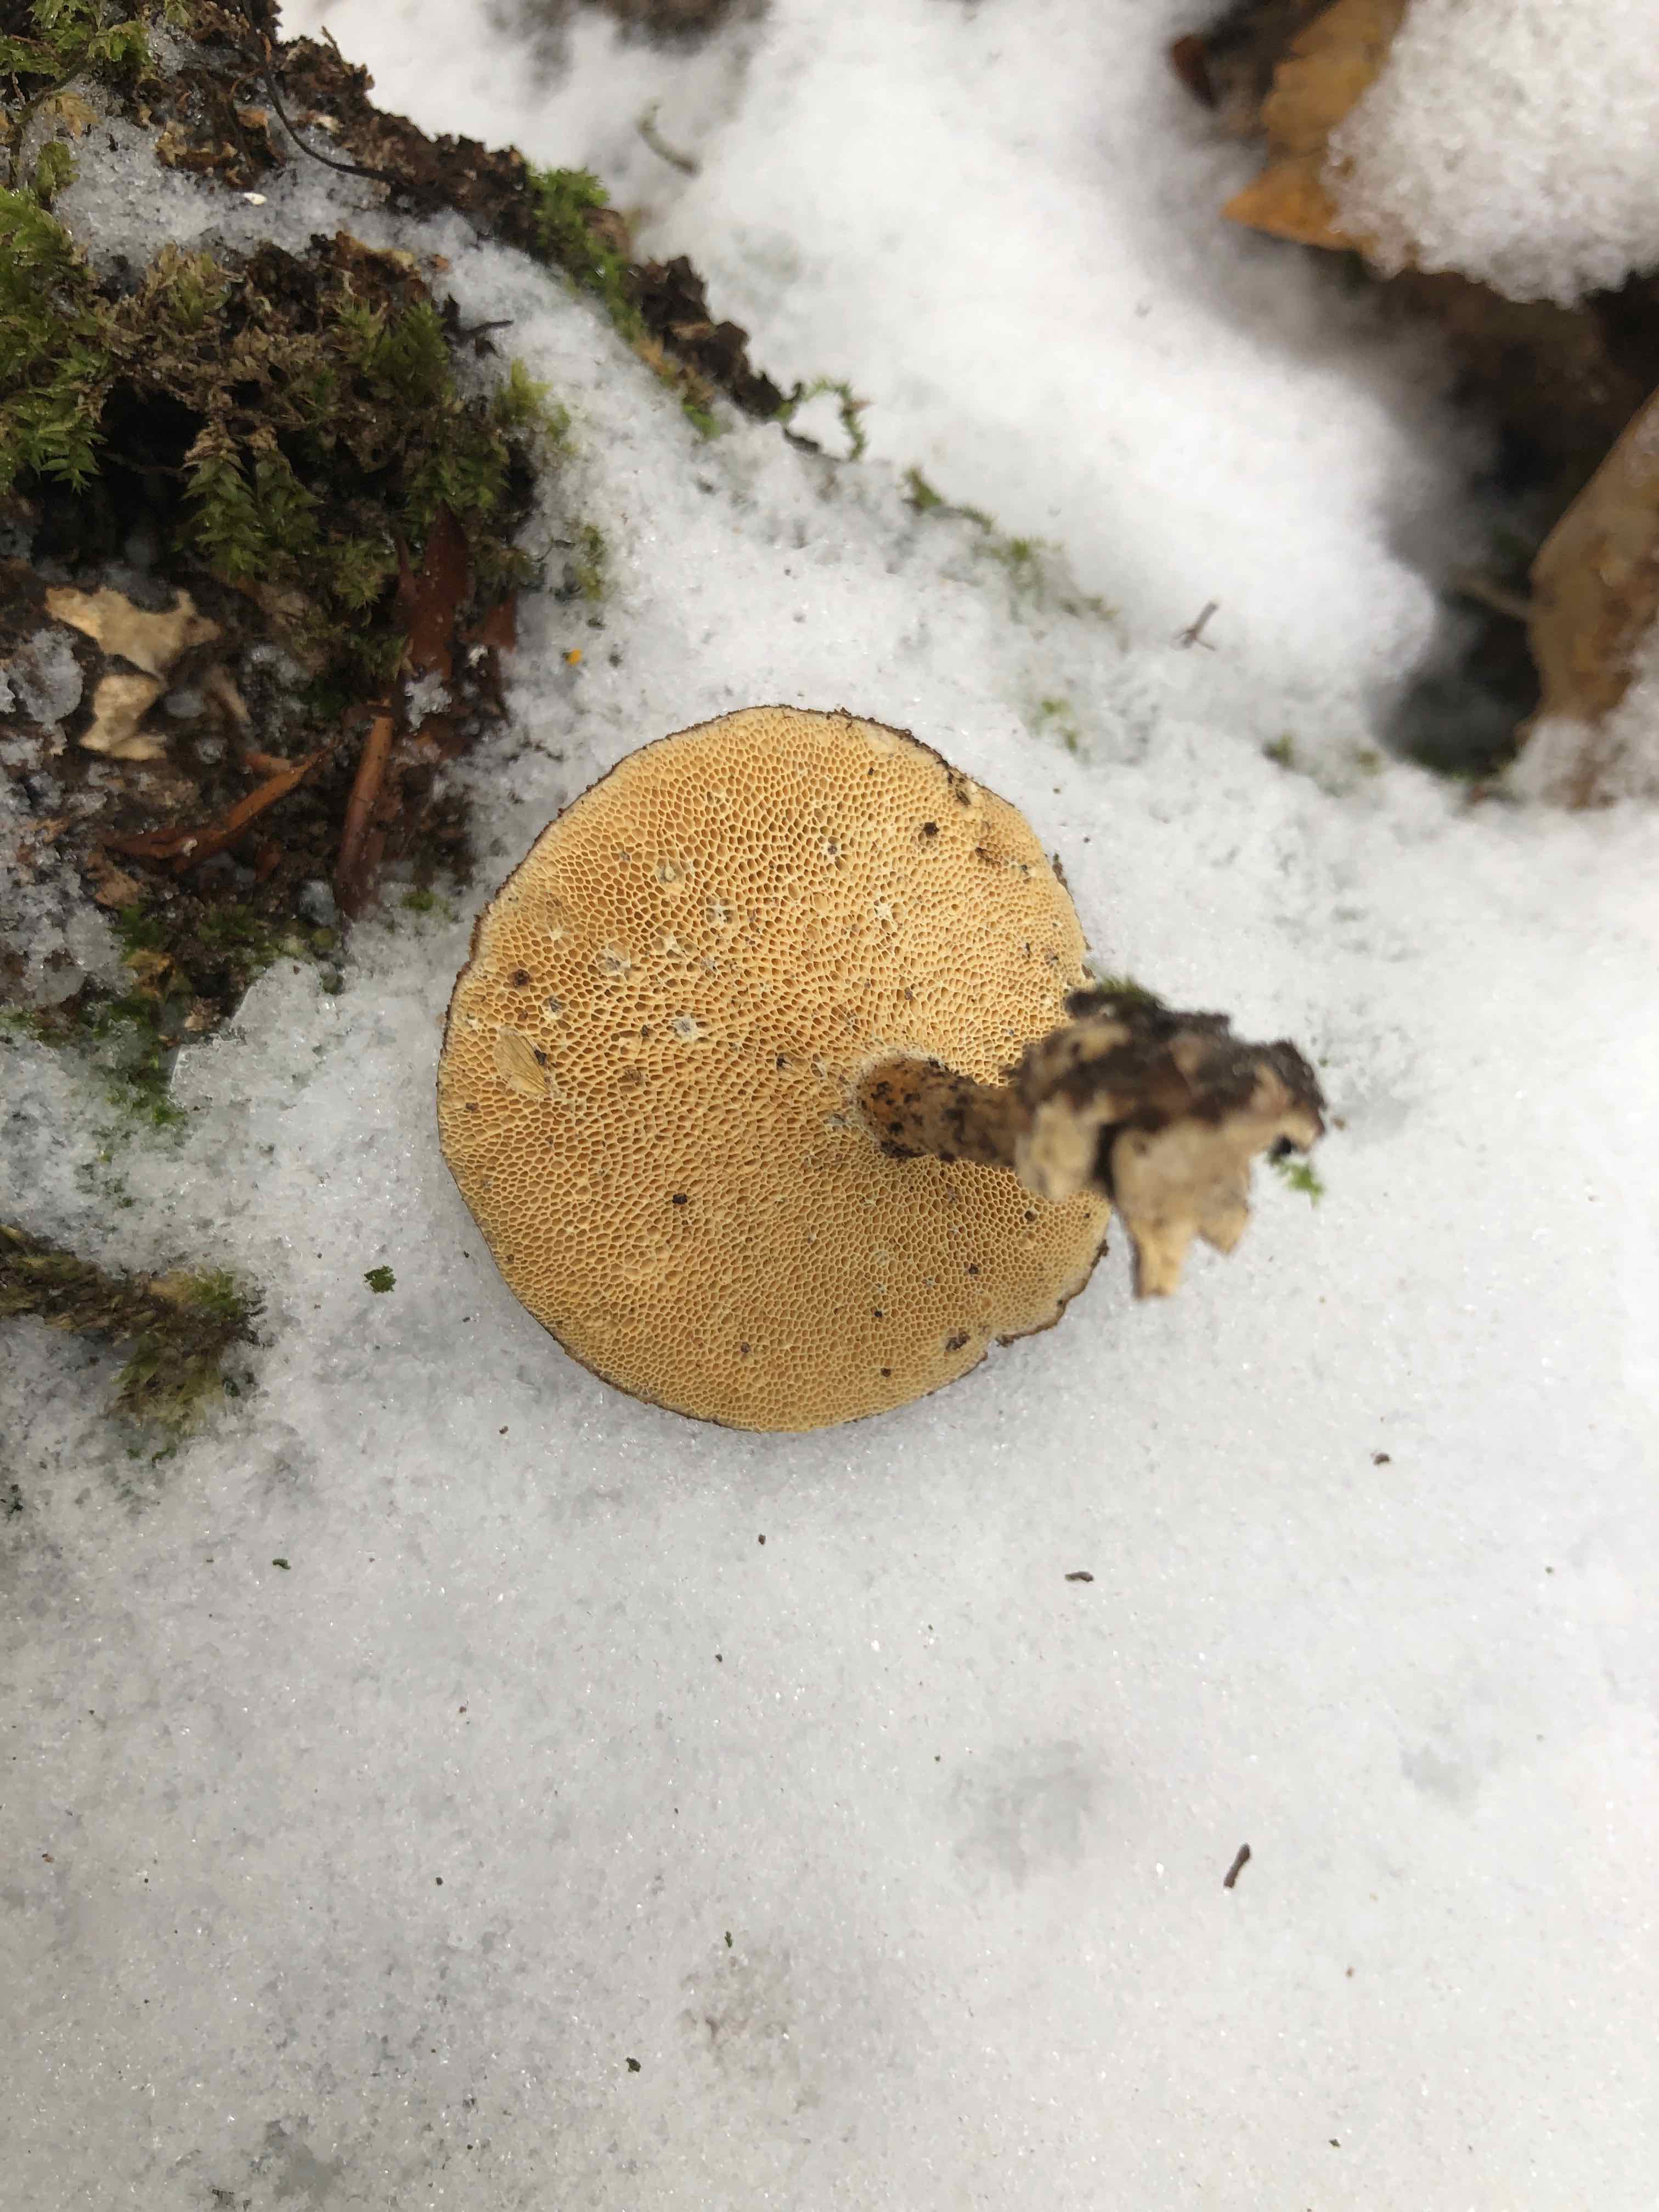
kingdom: Fungi
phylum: Basidiomycota
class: Agaricomycetes
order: Polyporales
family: Polyporaceae
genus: Lentinus
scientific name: Lentinus brumalis
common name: vinter-stilkporesvamp
